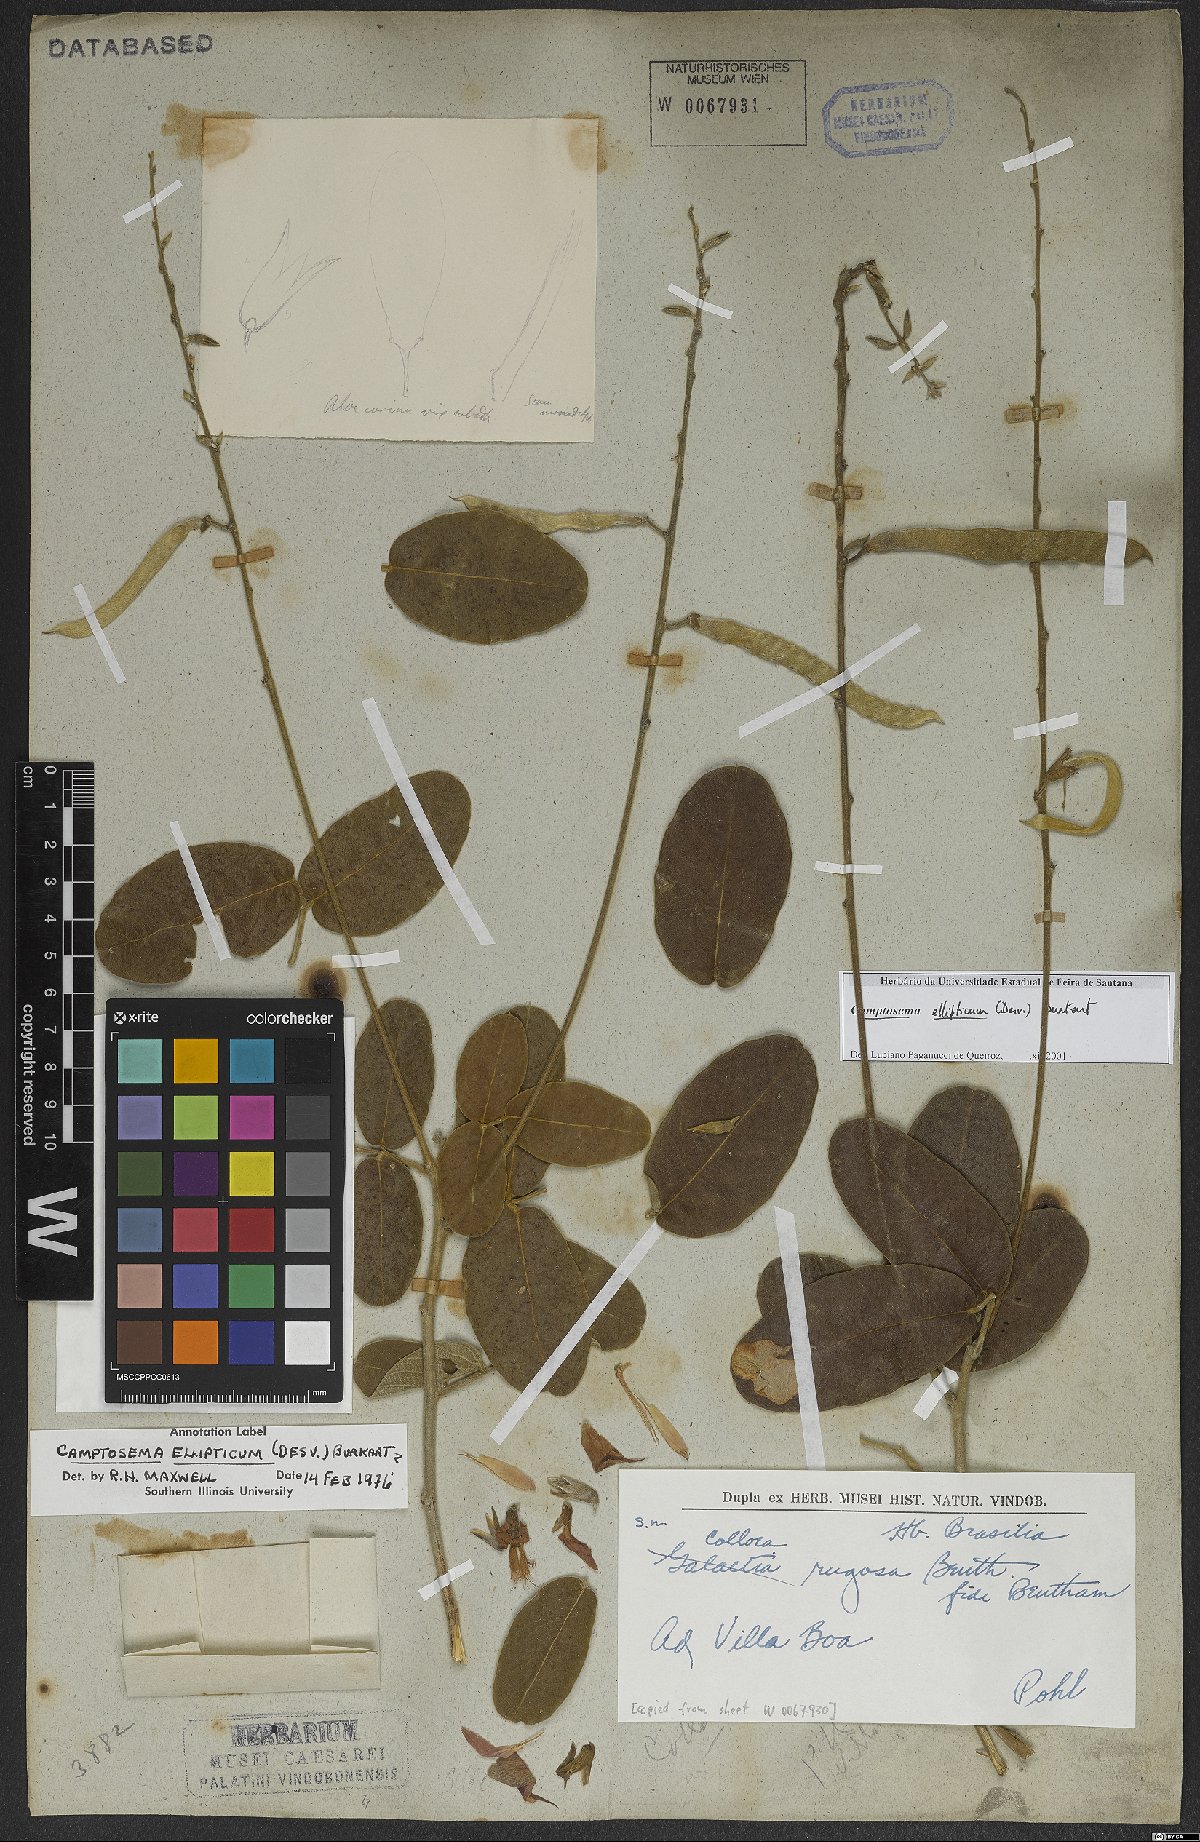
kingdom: Plantae
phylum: Tracheophyta
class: Magnoliopsida
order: Fabales
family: Fabaceae
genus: Cerradicola
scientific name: Cerradicola elliptica
